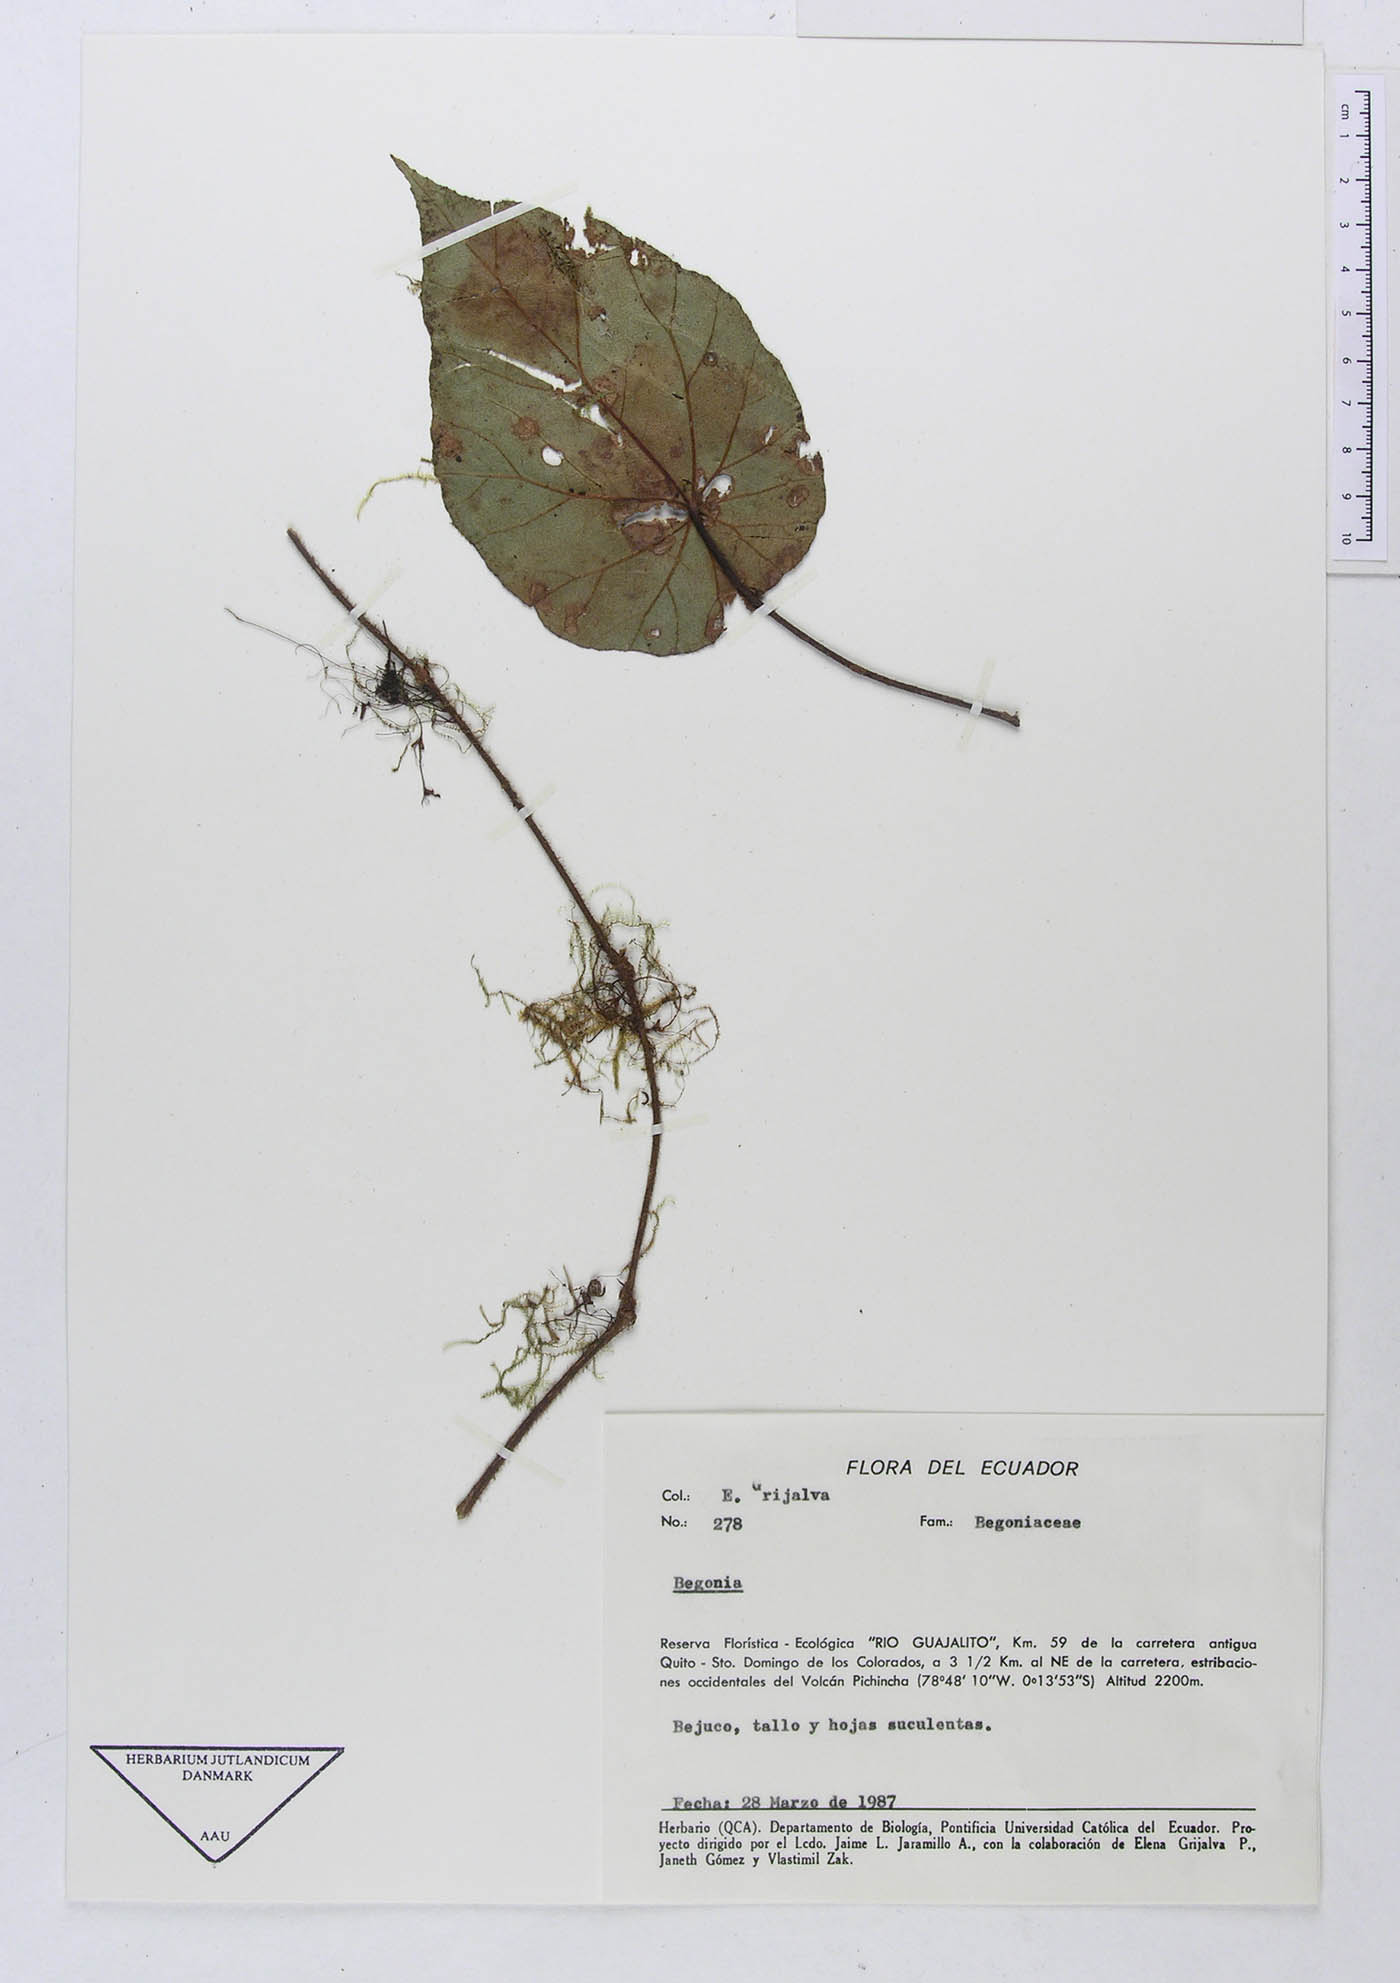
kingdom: Plantae
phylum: Tracheophyta
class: Magnoliopsida
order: Cucurbitales
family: Begoniaceae
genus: Begonia
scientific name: Begonia
